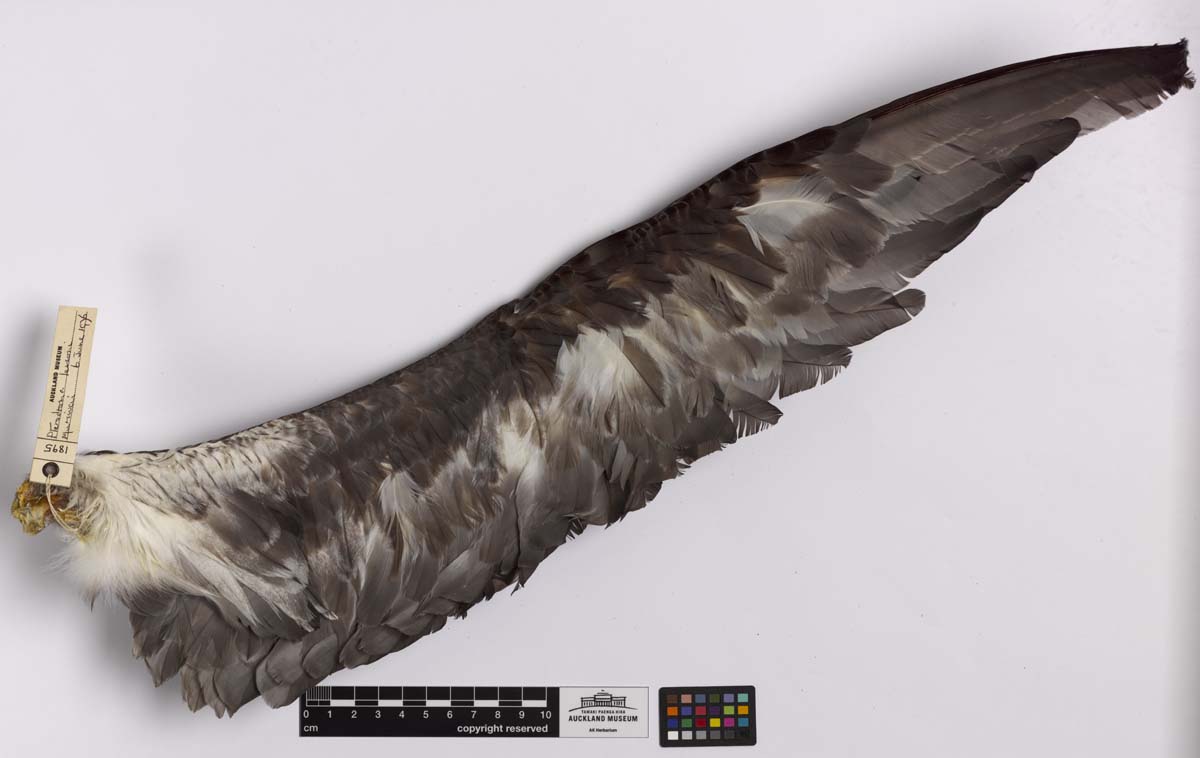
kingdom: Animalia
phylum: Chordata
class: Aves
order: Procellariiformes
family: Procellariidae
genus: Pterodroma
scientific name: Pterodroma lessonii
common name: White-headed petrel
